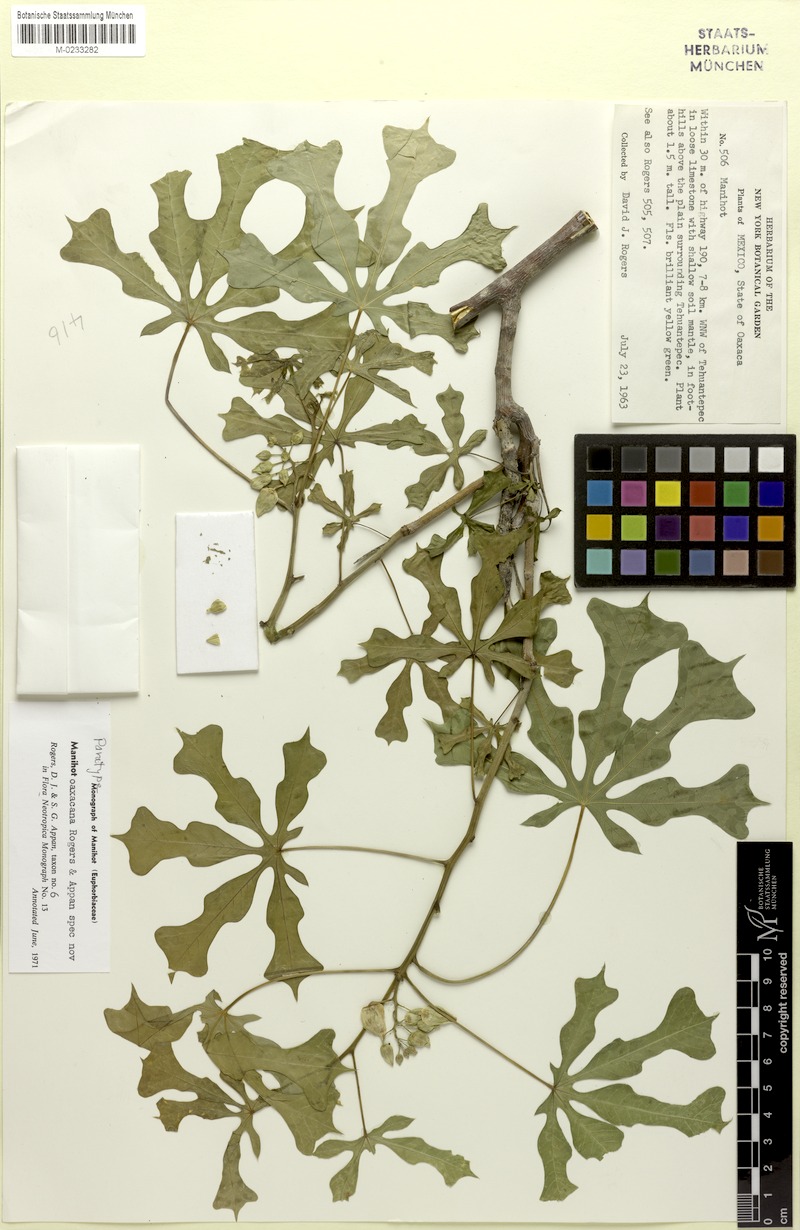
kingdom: Plantae
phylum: Tracheophyta
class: Magnoliopsida
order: Malpighiales
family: Euphorbiaceae
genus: Manihot
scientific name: Manihot oaxacana
